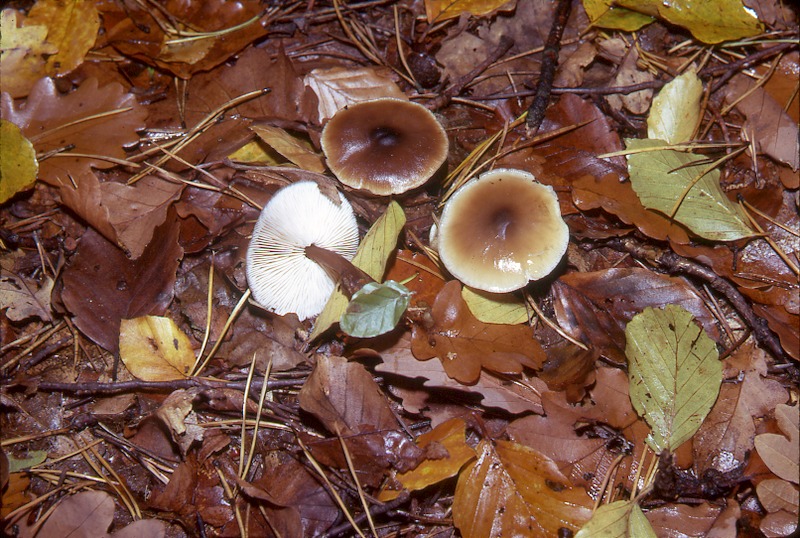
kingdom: Fungi
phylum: Basidiomycota
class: Agaricomycetes
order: Agaricales
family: Omphalotaceae
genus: Rhodocollybia
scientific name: Rhodocollybia butyracea
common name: Butter cap
